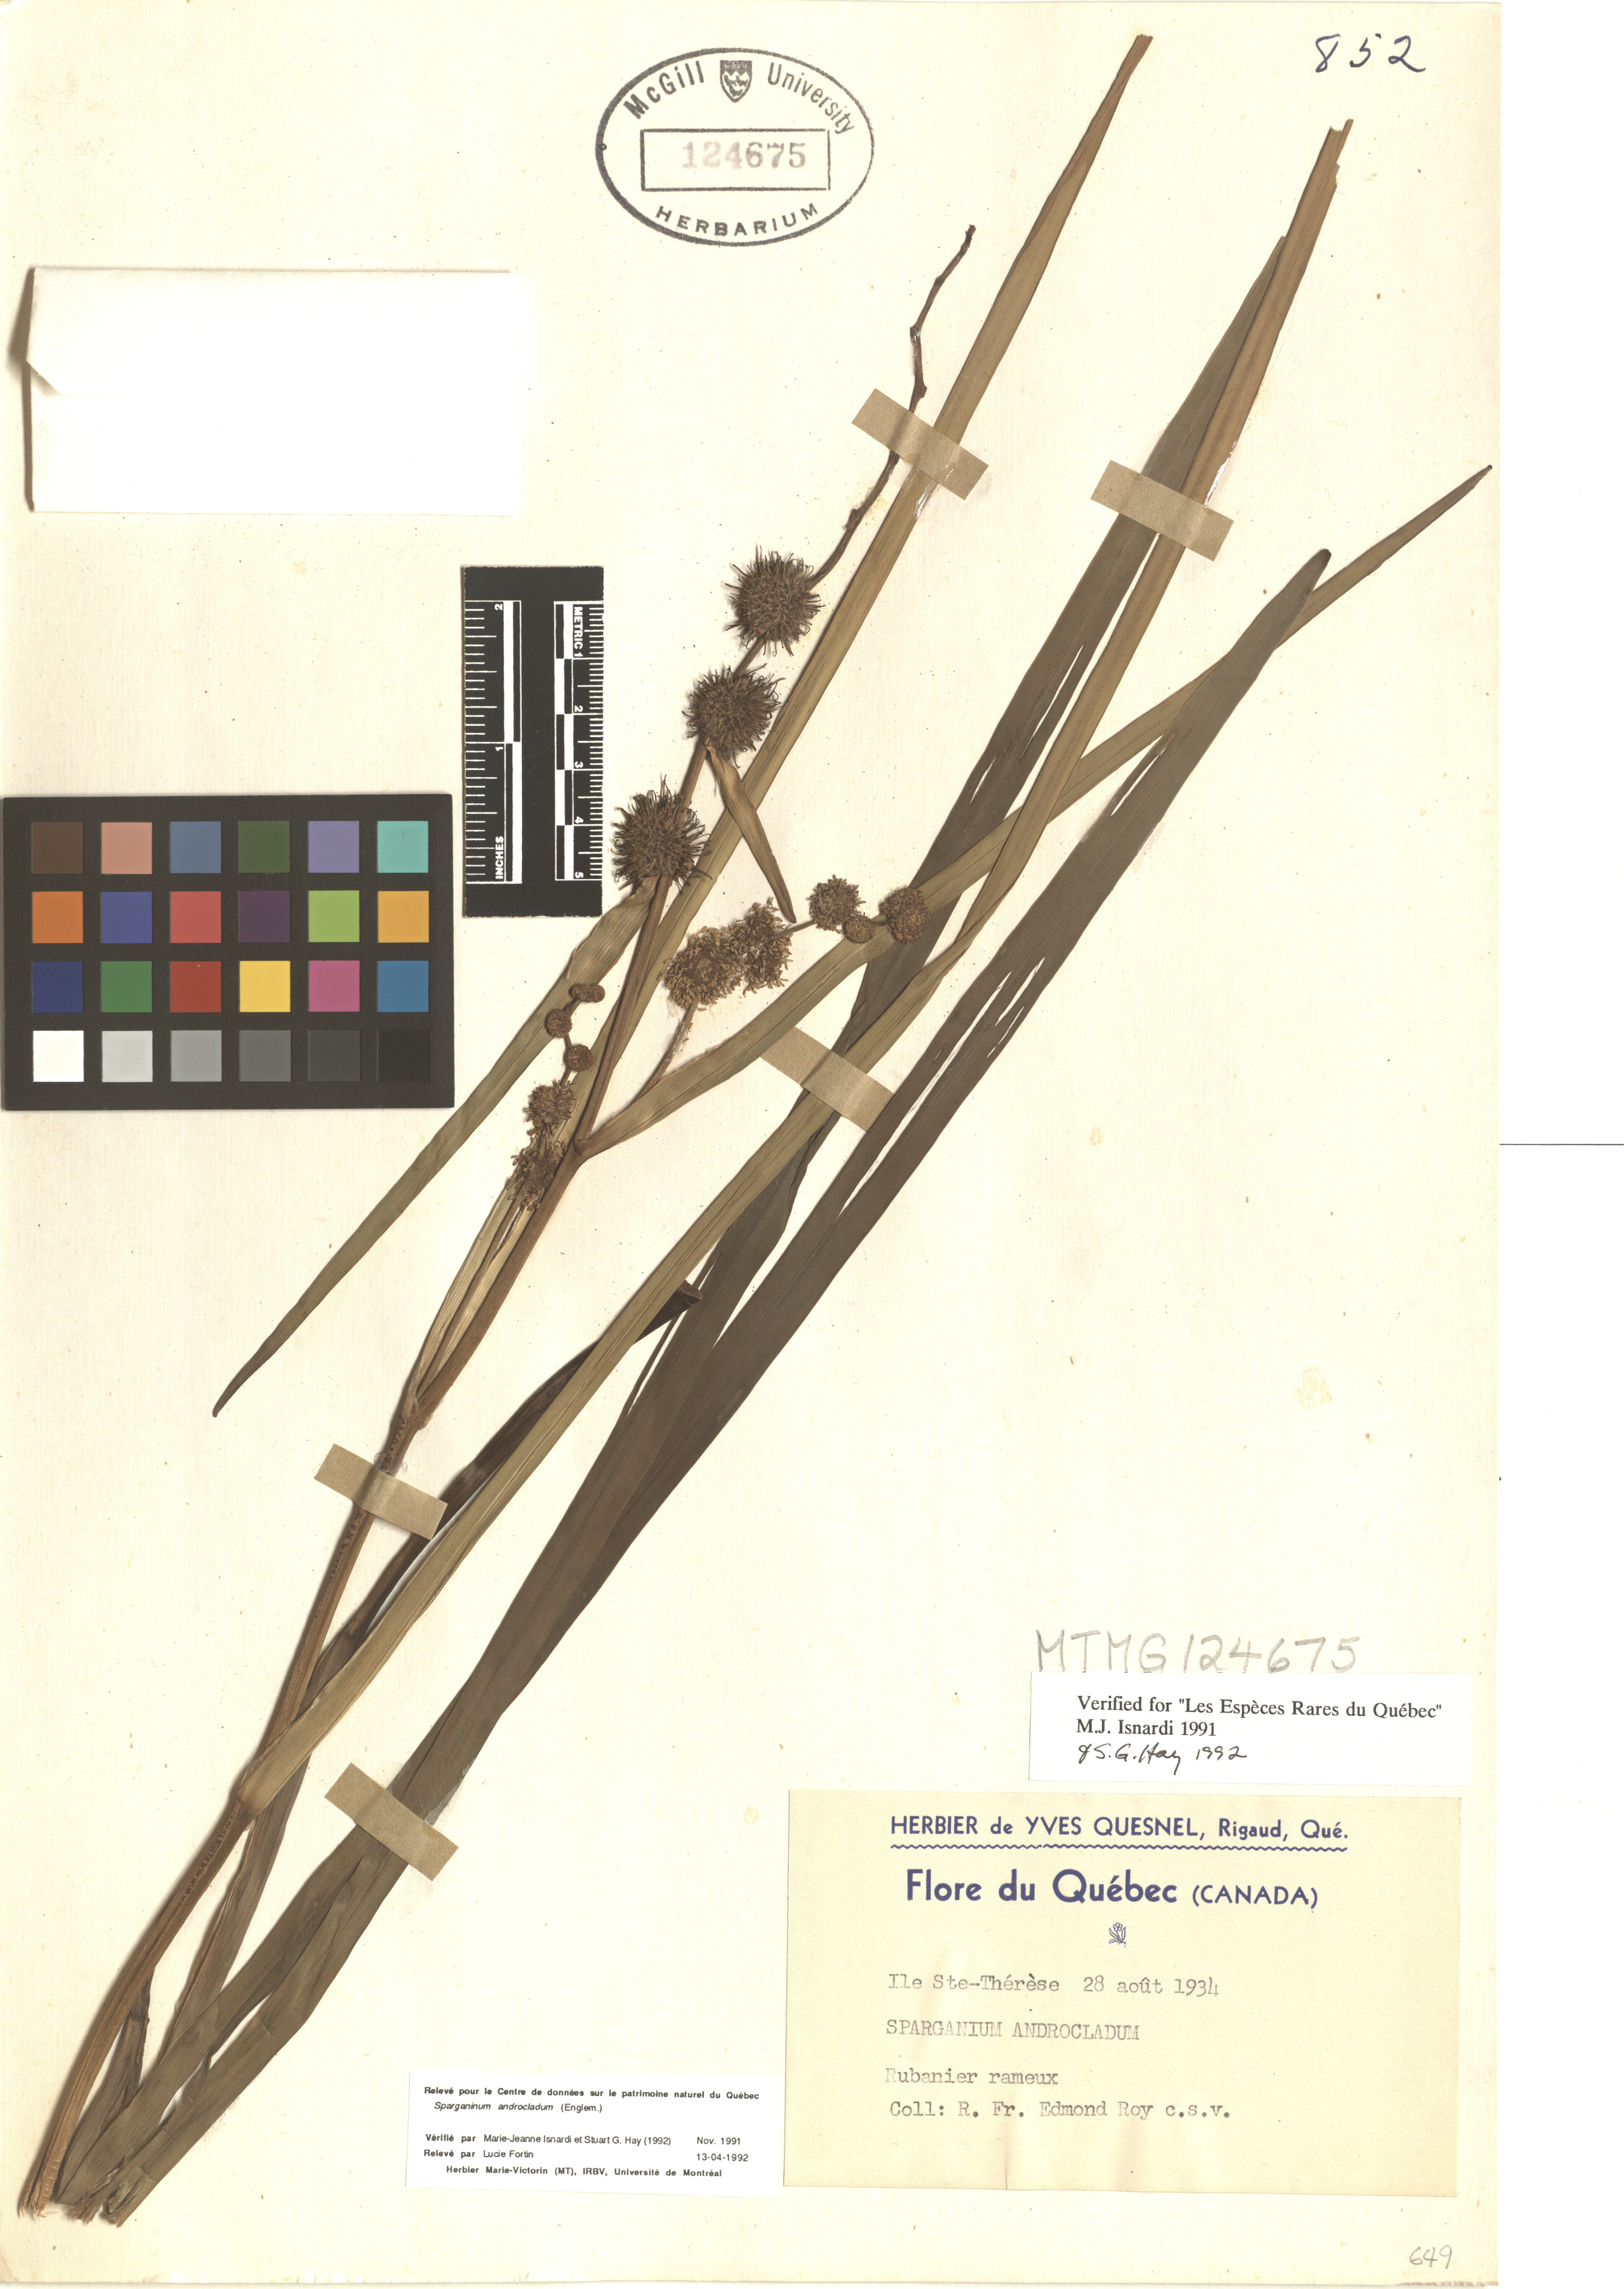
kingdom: Plantae
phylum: Tracheophyta
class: Liliopsida
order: Poales
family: Typhaceae
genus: Sparganium
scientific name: Sparganium androcladum
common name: Branched burreed
